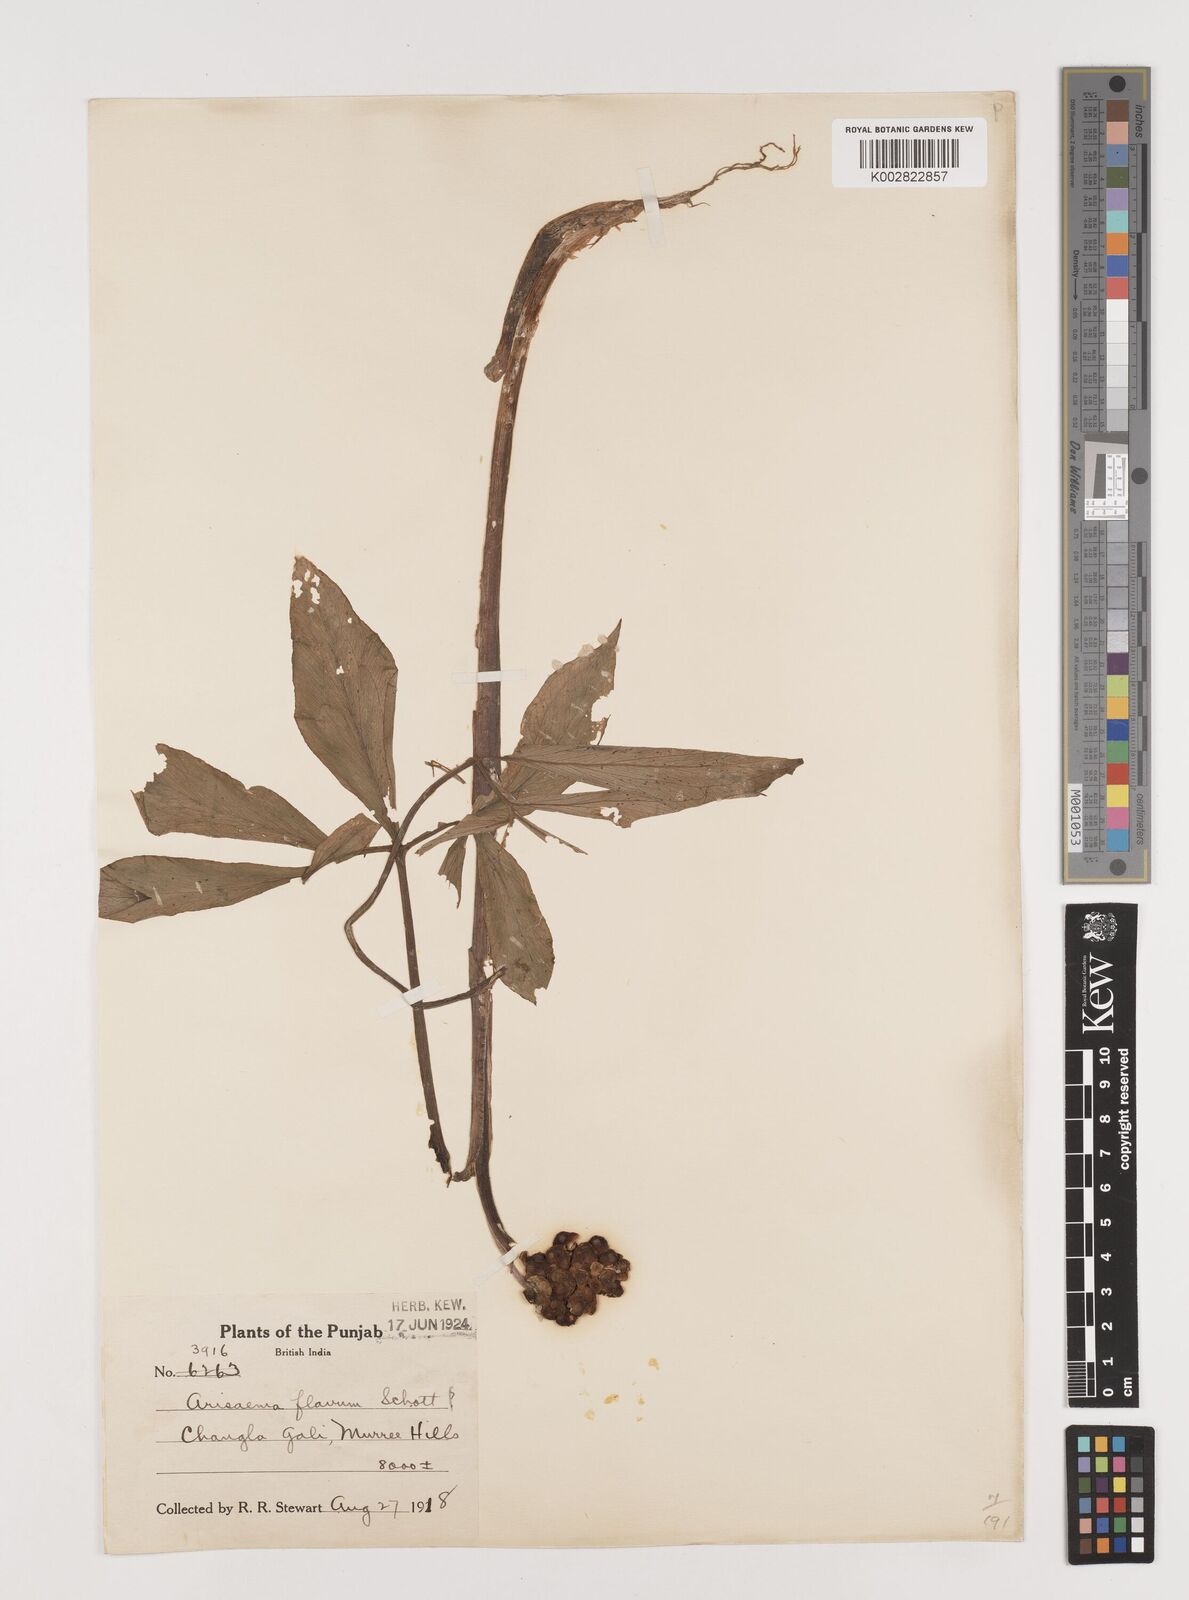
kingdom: Plantae
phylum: Tracheophyta
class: Liliopsida
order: Alismatales
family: Araceae
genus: Arisaema
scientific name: Arisaema flavum
